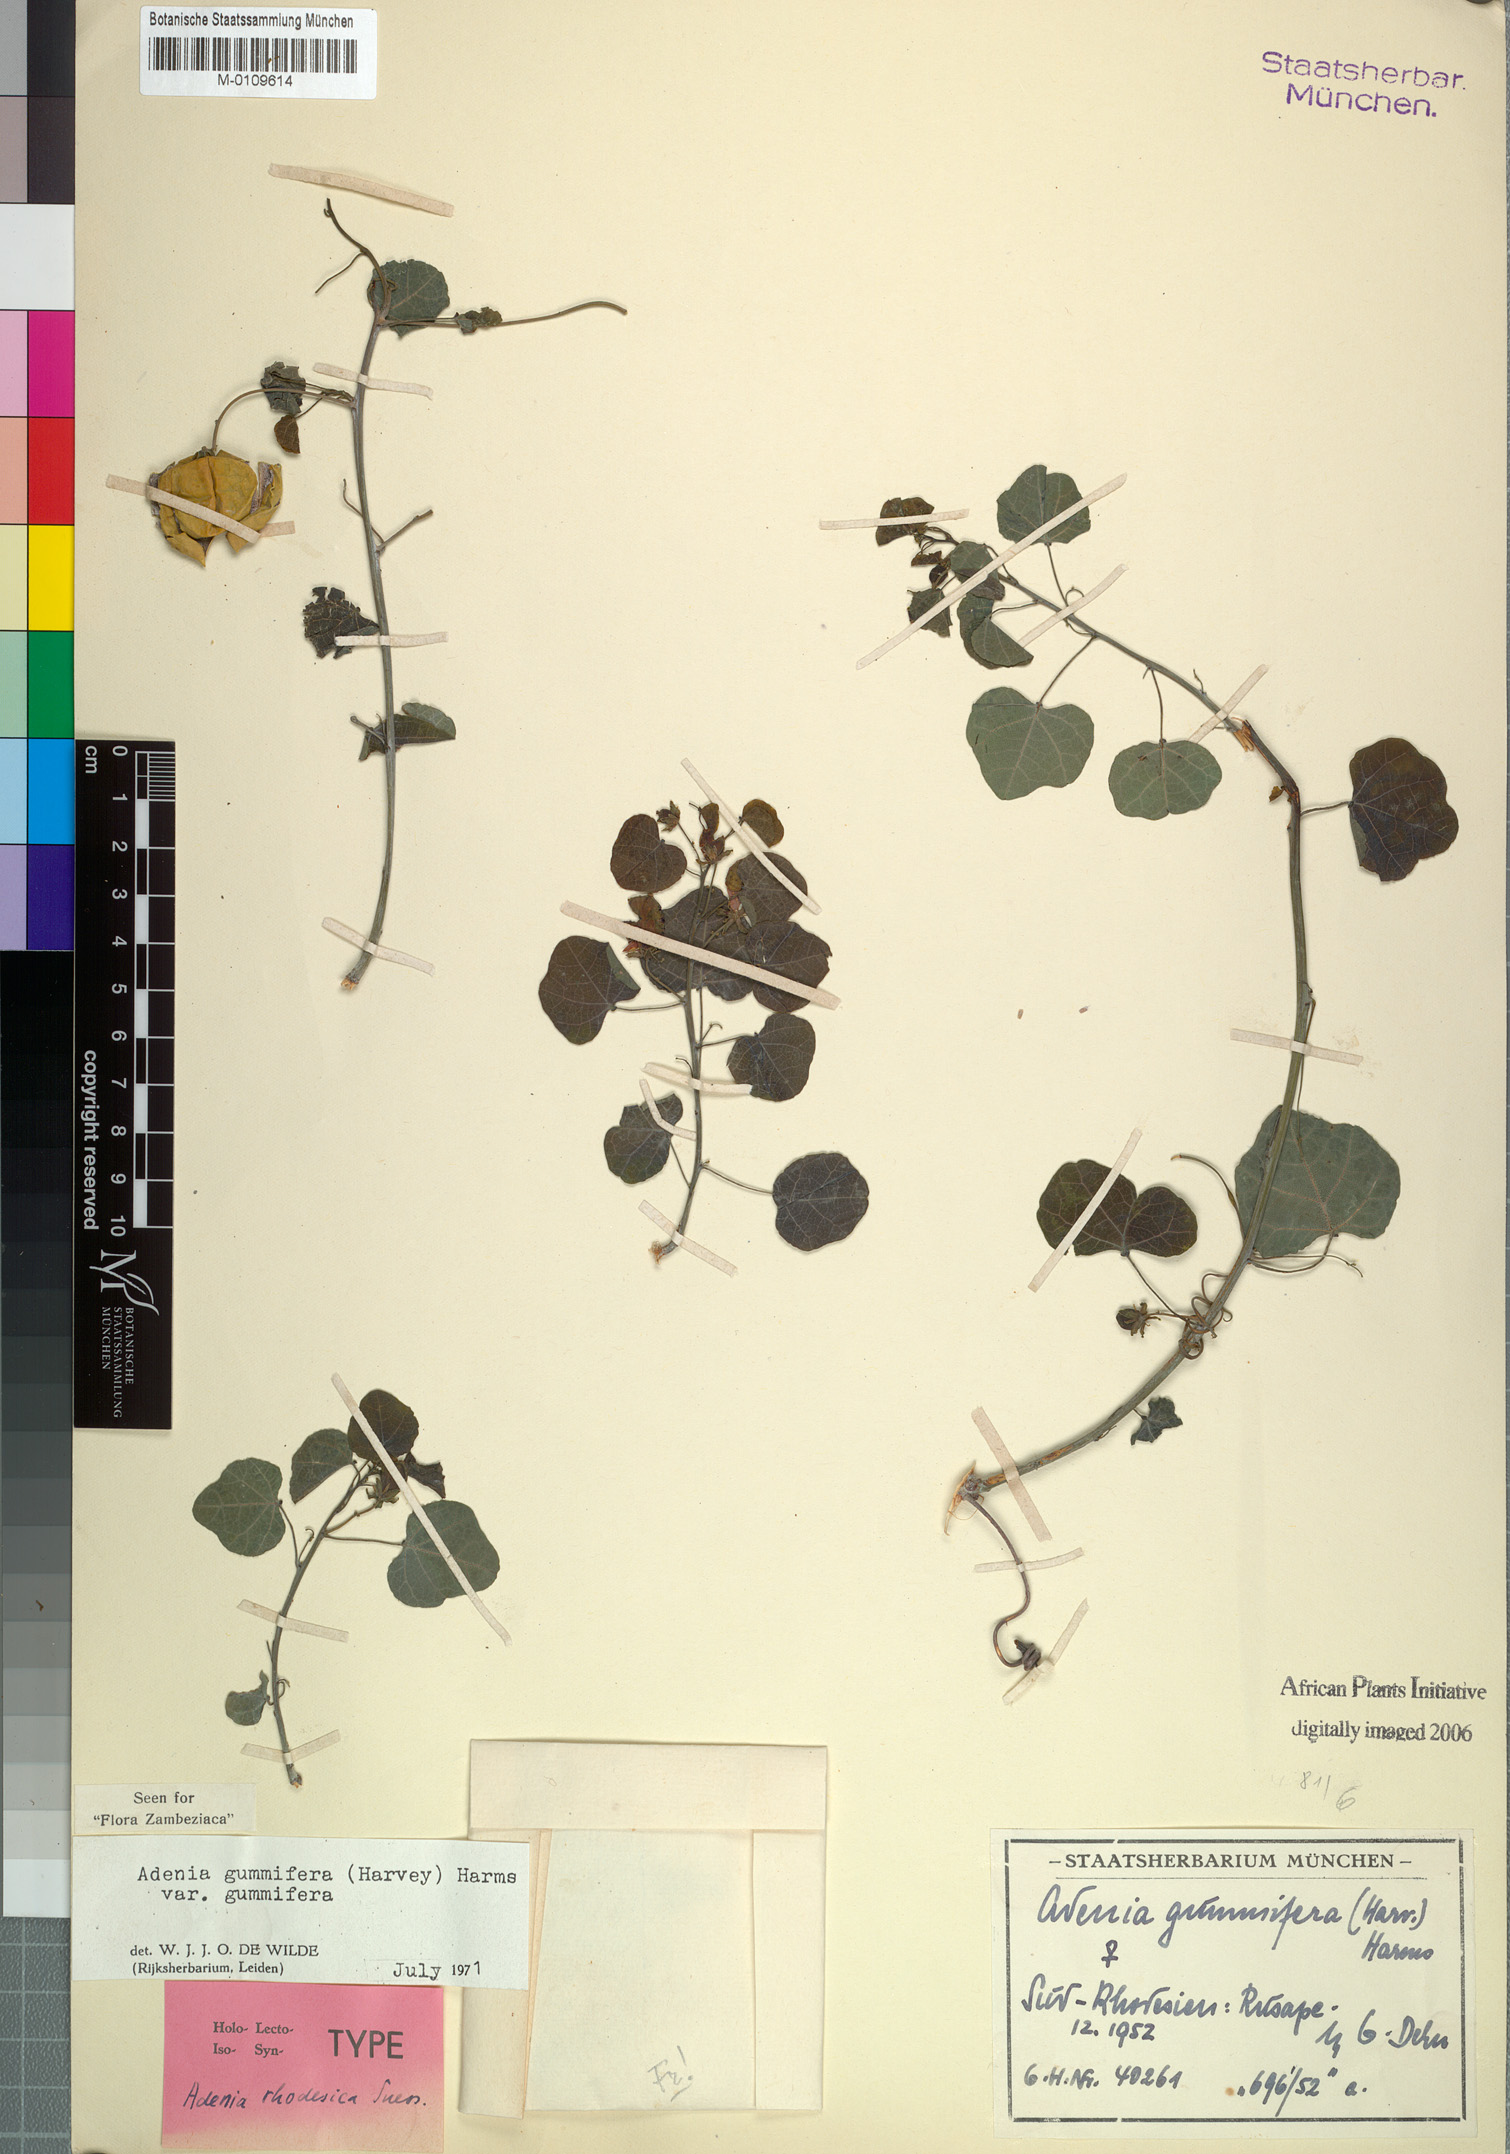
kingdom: Plantae
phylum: Tracheophyta
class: Magnoliopsida
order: Malpighiales
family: Passifloraceae
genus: Adenia
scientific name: Adenia cissampeloides
